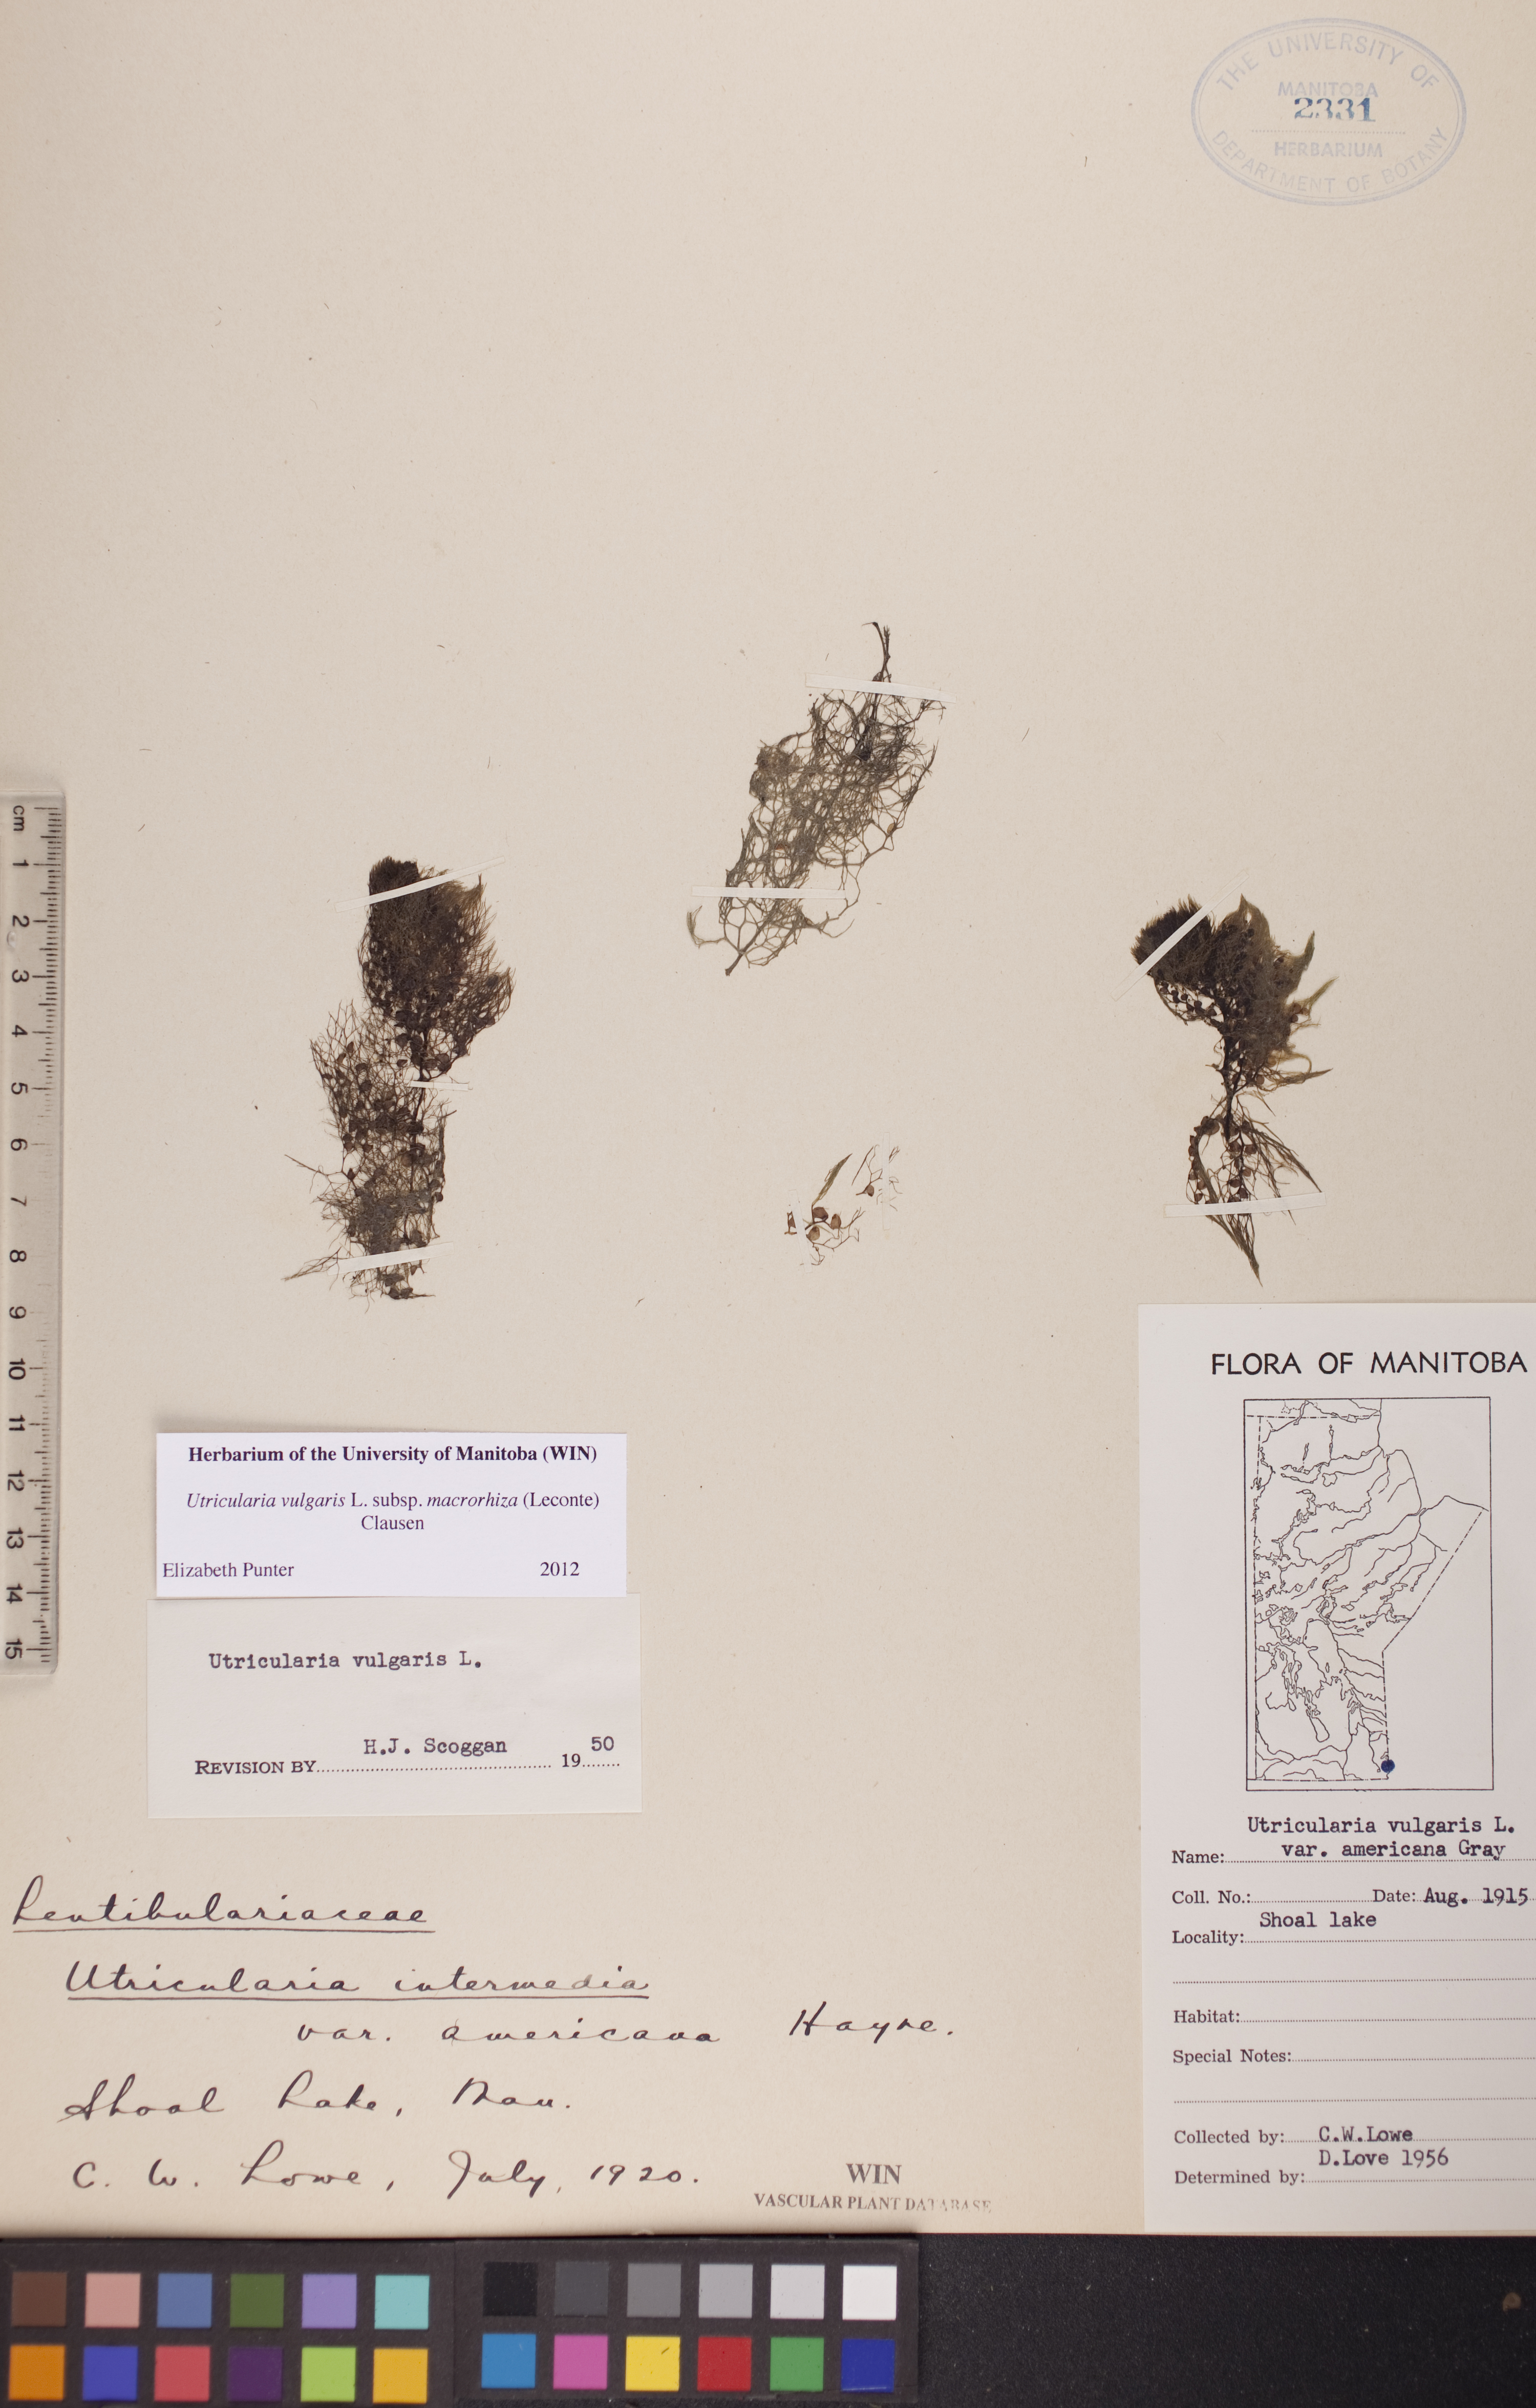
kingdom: Plantae
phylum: Tracheophyta
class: Magnoliopsida
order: Lamiales
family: Lentibulariaceae
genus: Utricularia
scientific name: Utricularia macrorhiza
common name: Common bladderwort
